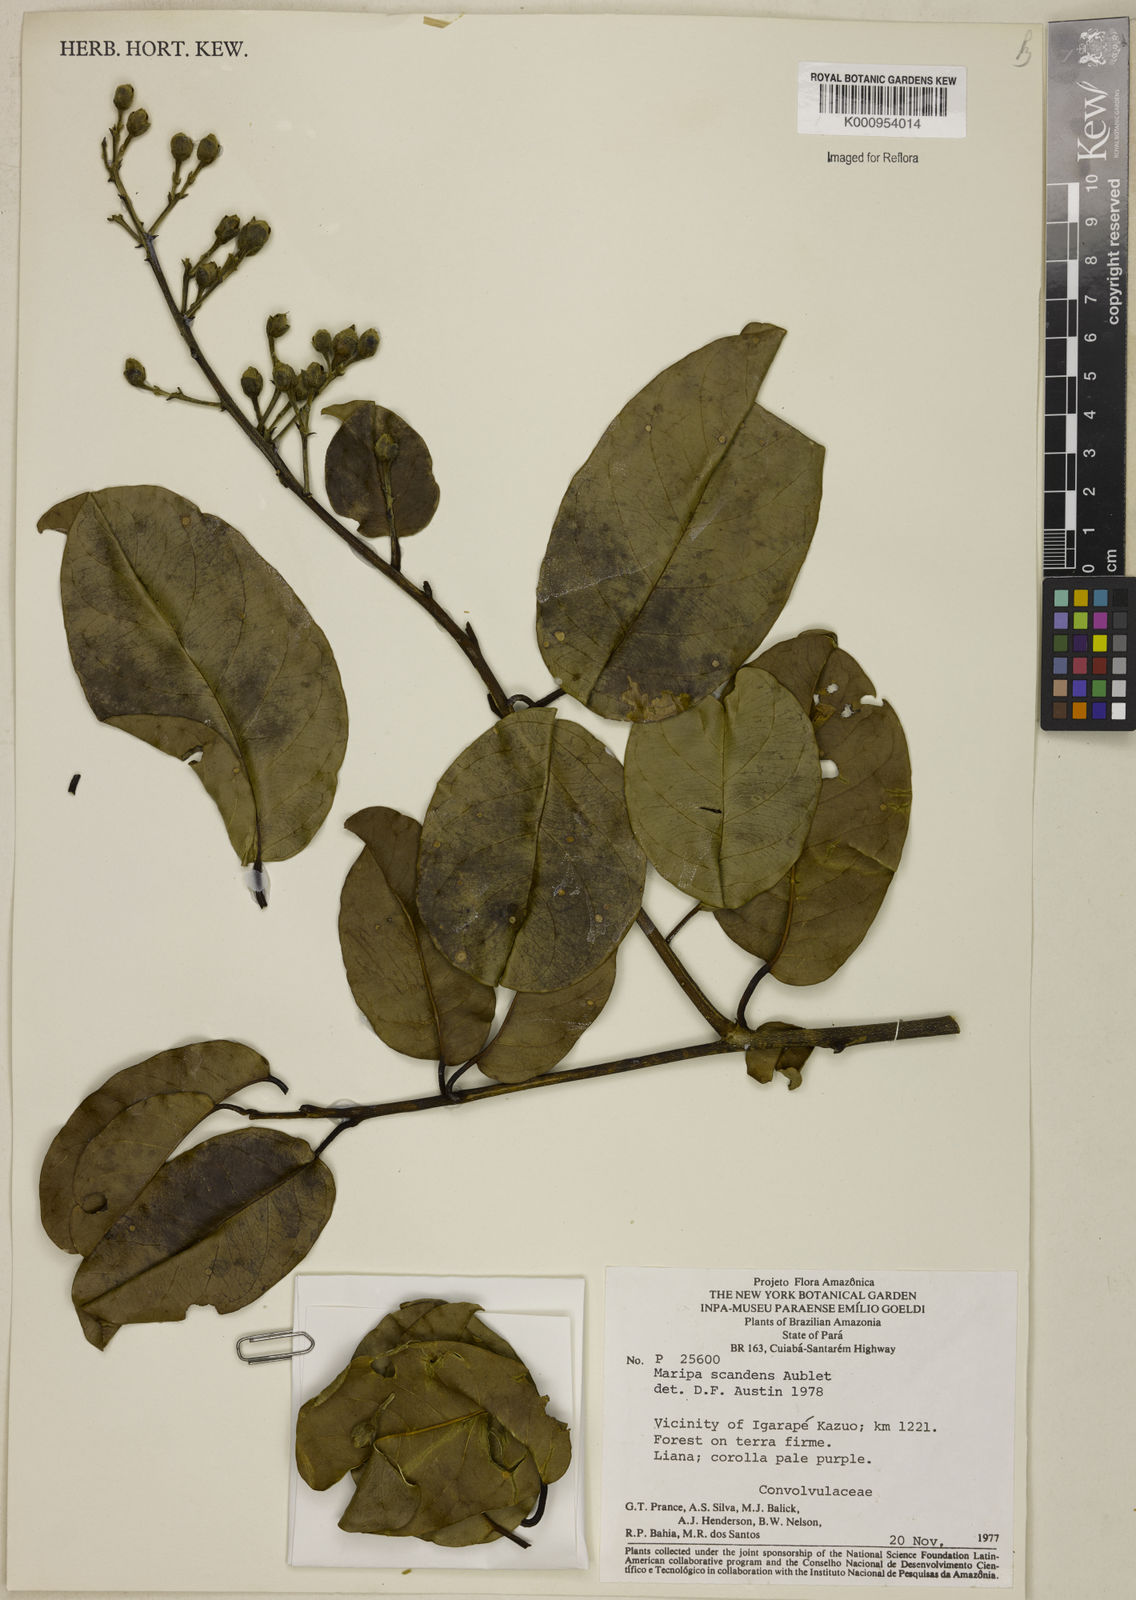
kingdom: Plantae
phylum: Tracheophyta
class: Magnoliopsida
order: Solanales
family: Convolvulaceae
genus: Maripa
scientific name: Maripa scandens
